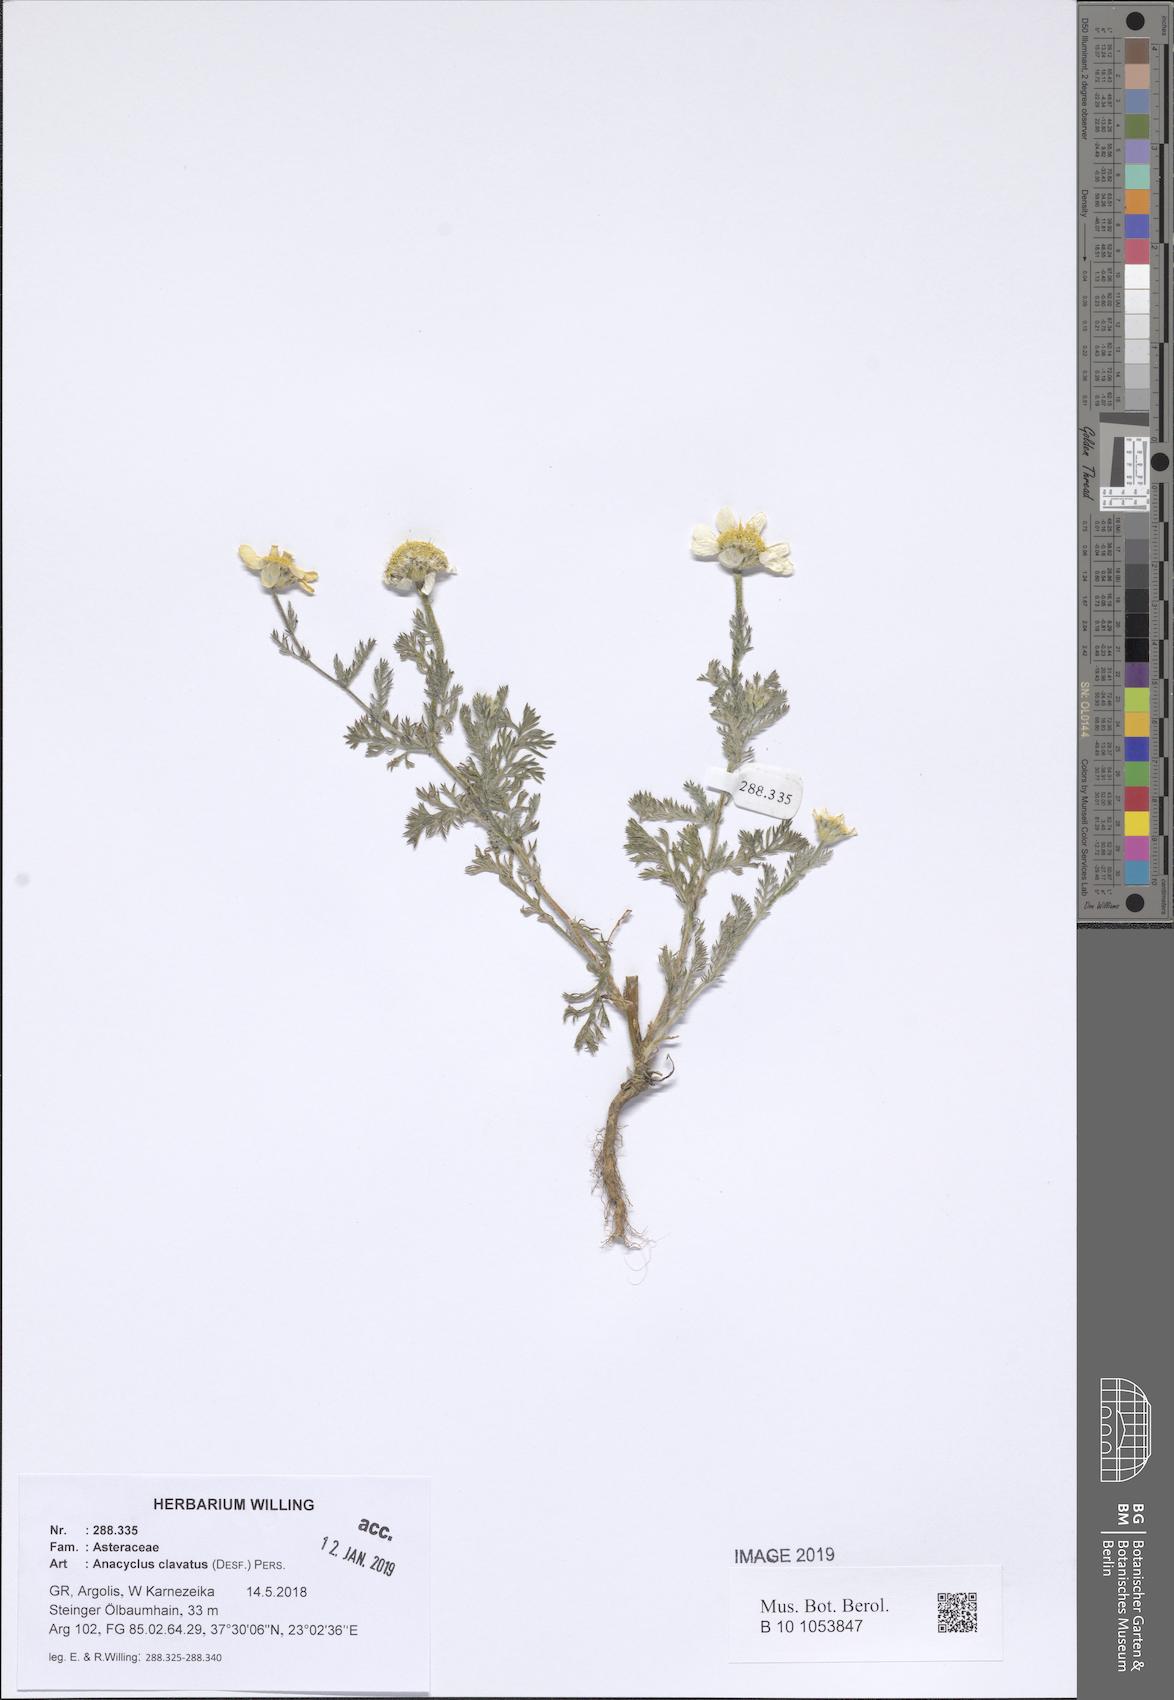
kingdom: Plantae
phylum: Tracheophyta
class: Magnoliopsida
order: Asterales
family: Asteraceae
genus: Anacyclus
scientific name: Anacyclus clavatus
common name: Whitebuttons
